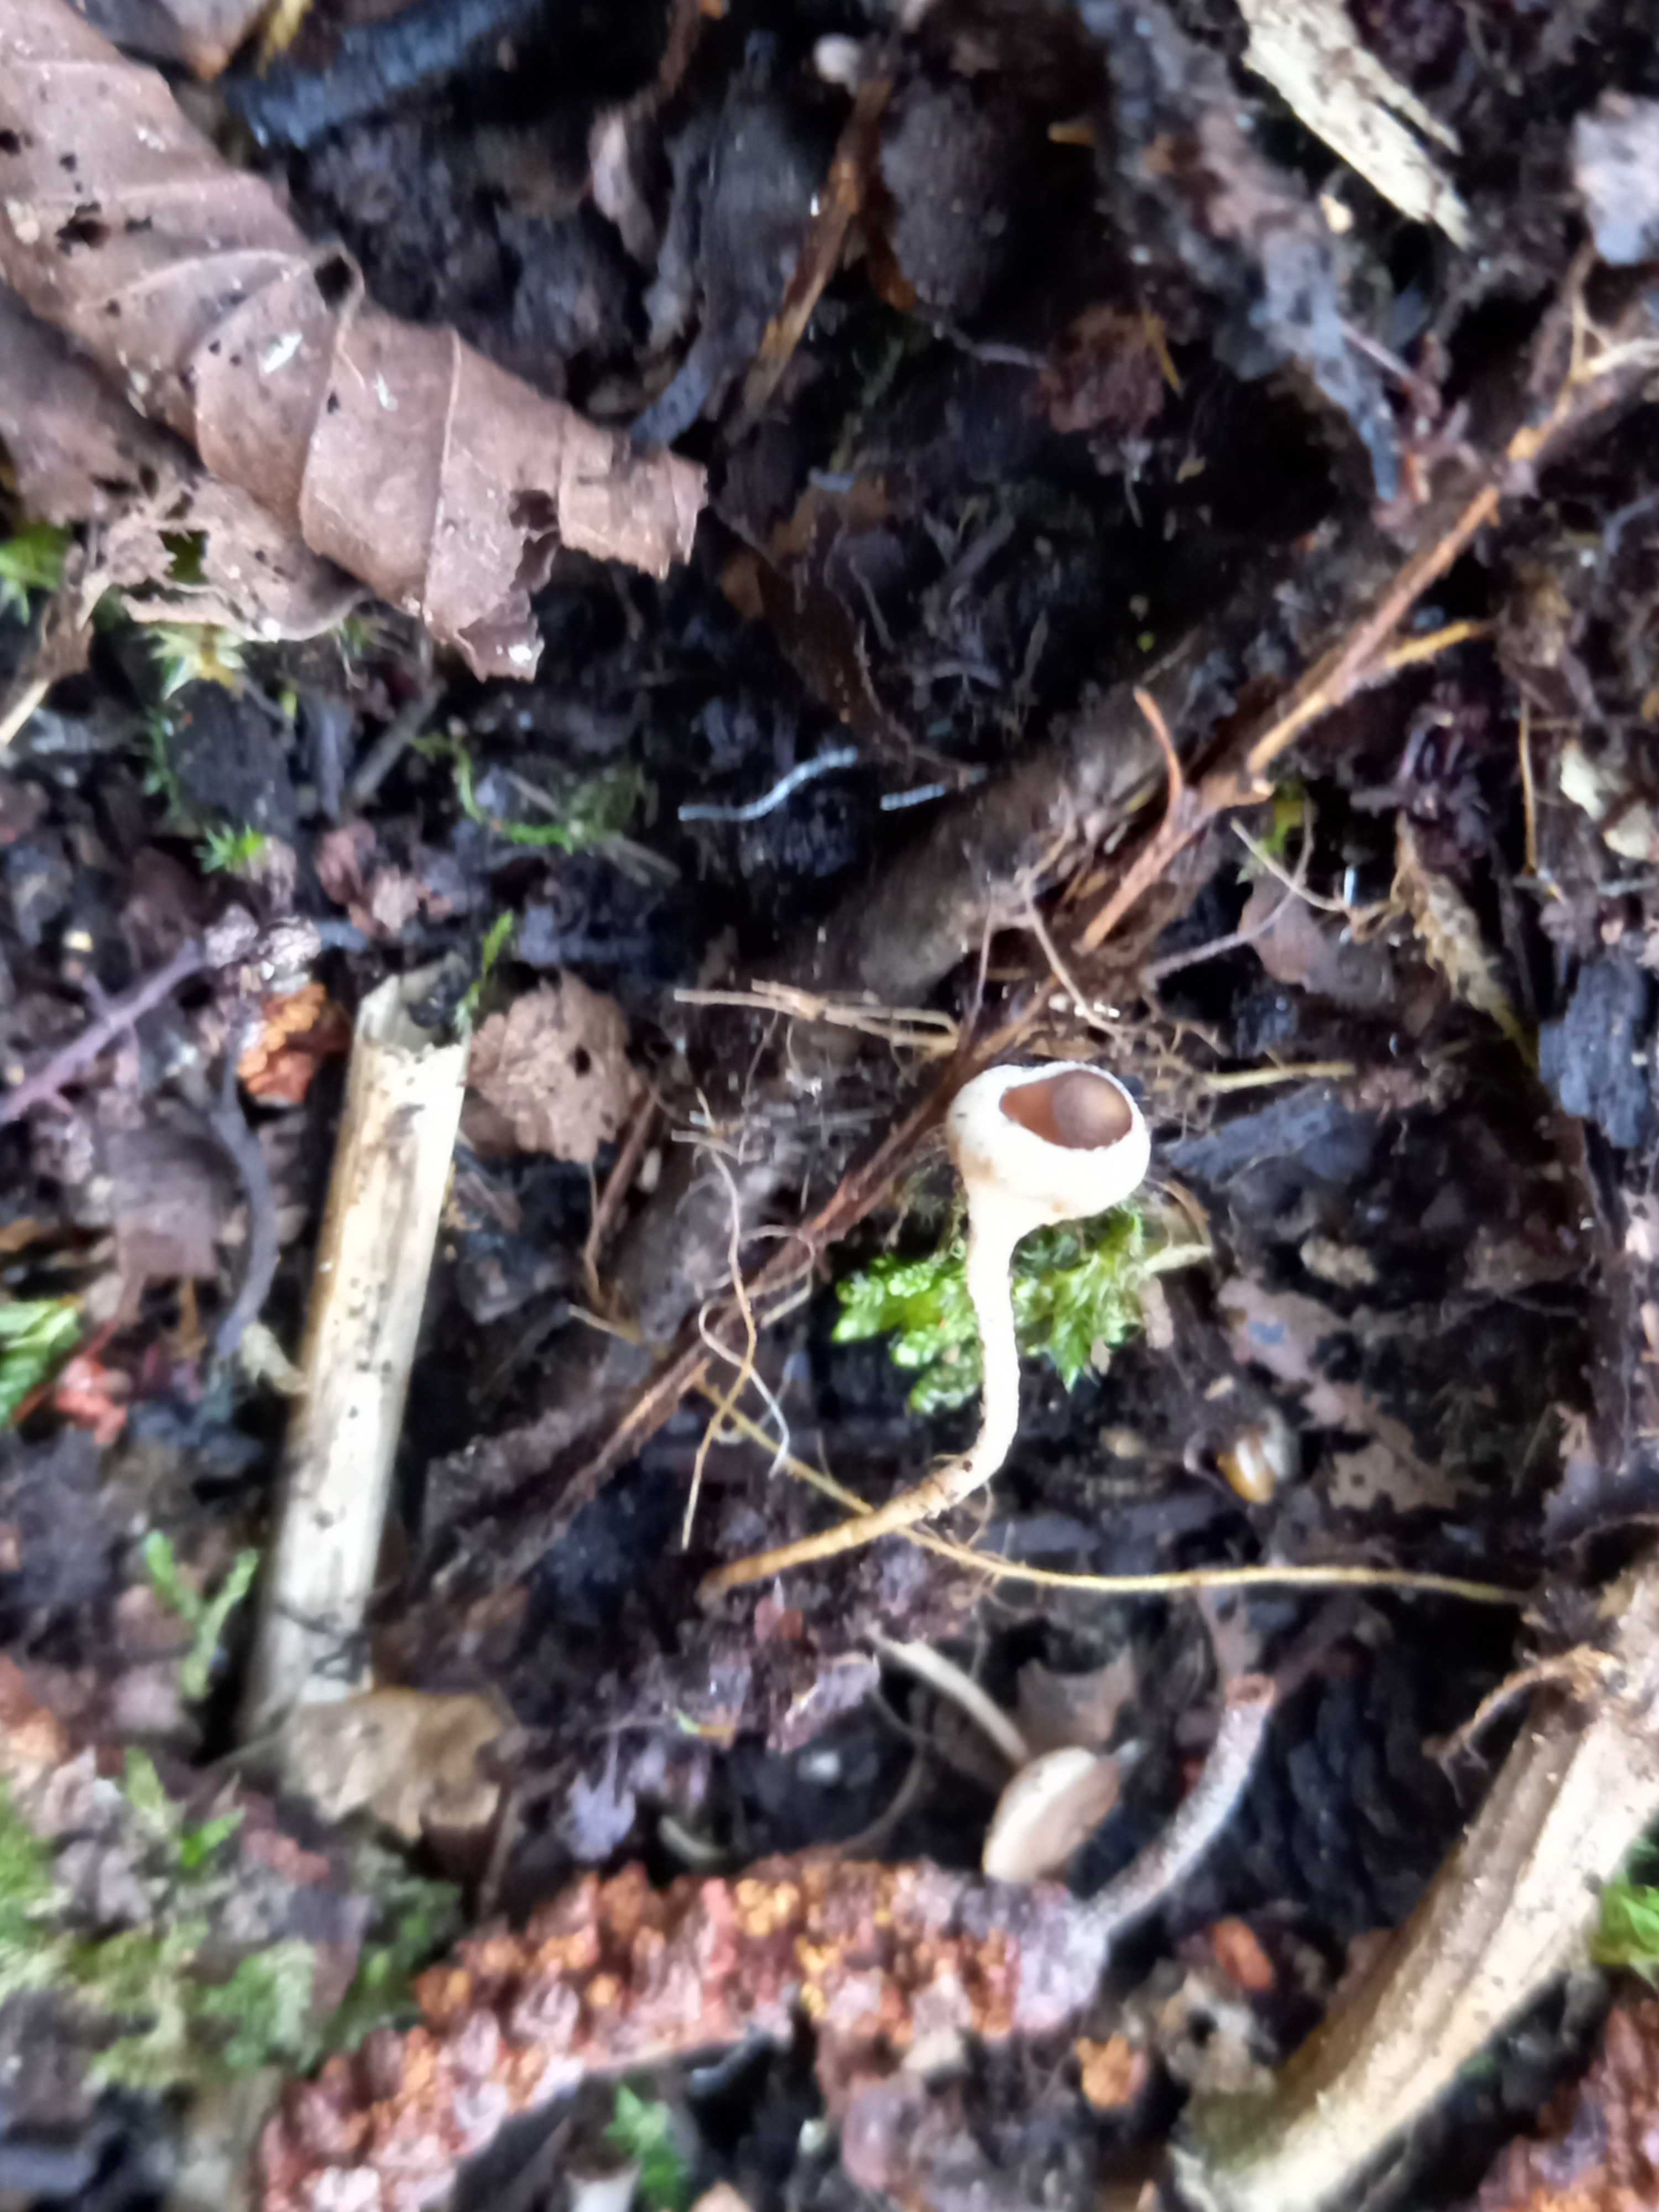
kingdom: Fungi
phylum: Ascomycota
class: Leotiomycetes
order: Helotiales
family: Sclerotiniaceae
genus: Ciboria
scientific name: Ciboria amentacea
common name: ellerakle-knoldskive
